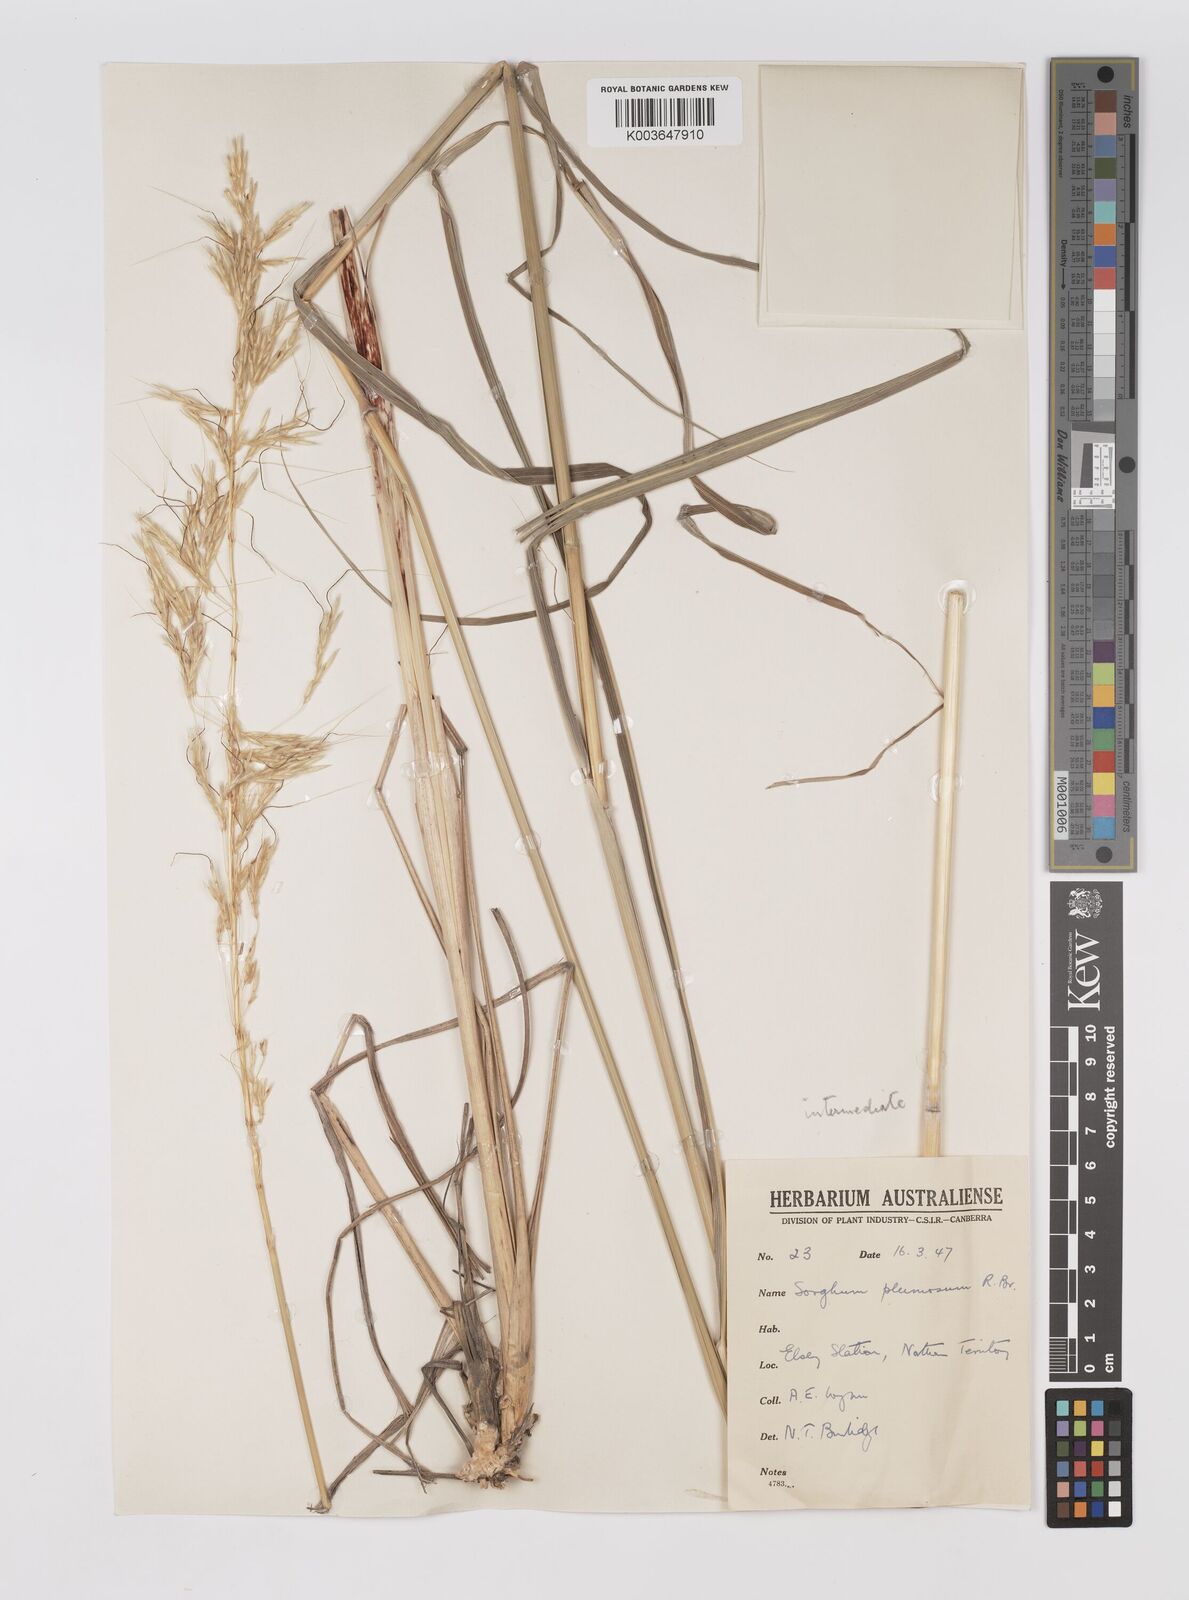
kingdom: Plantae
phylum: Tracheophyta
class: Liliopsida
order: Poales
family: Poaceae
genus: Sarga
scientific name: Sarga timorensis
